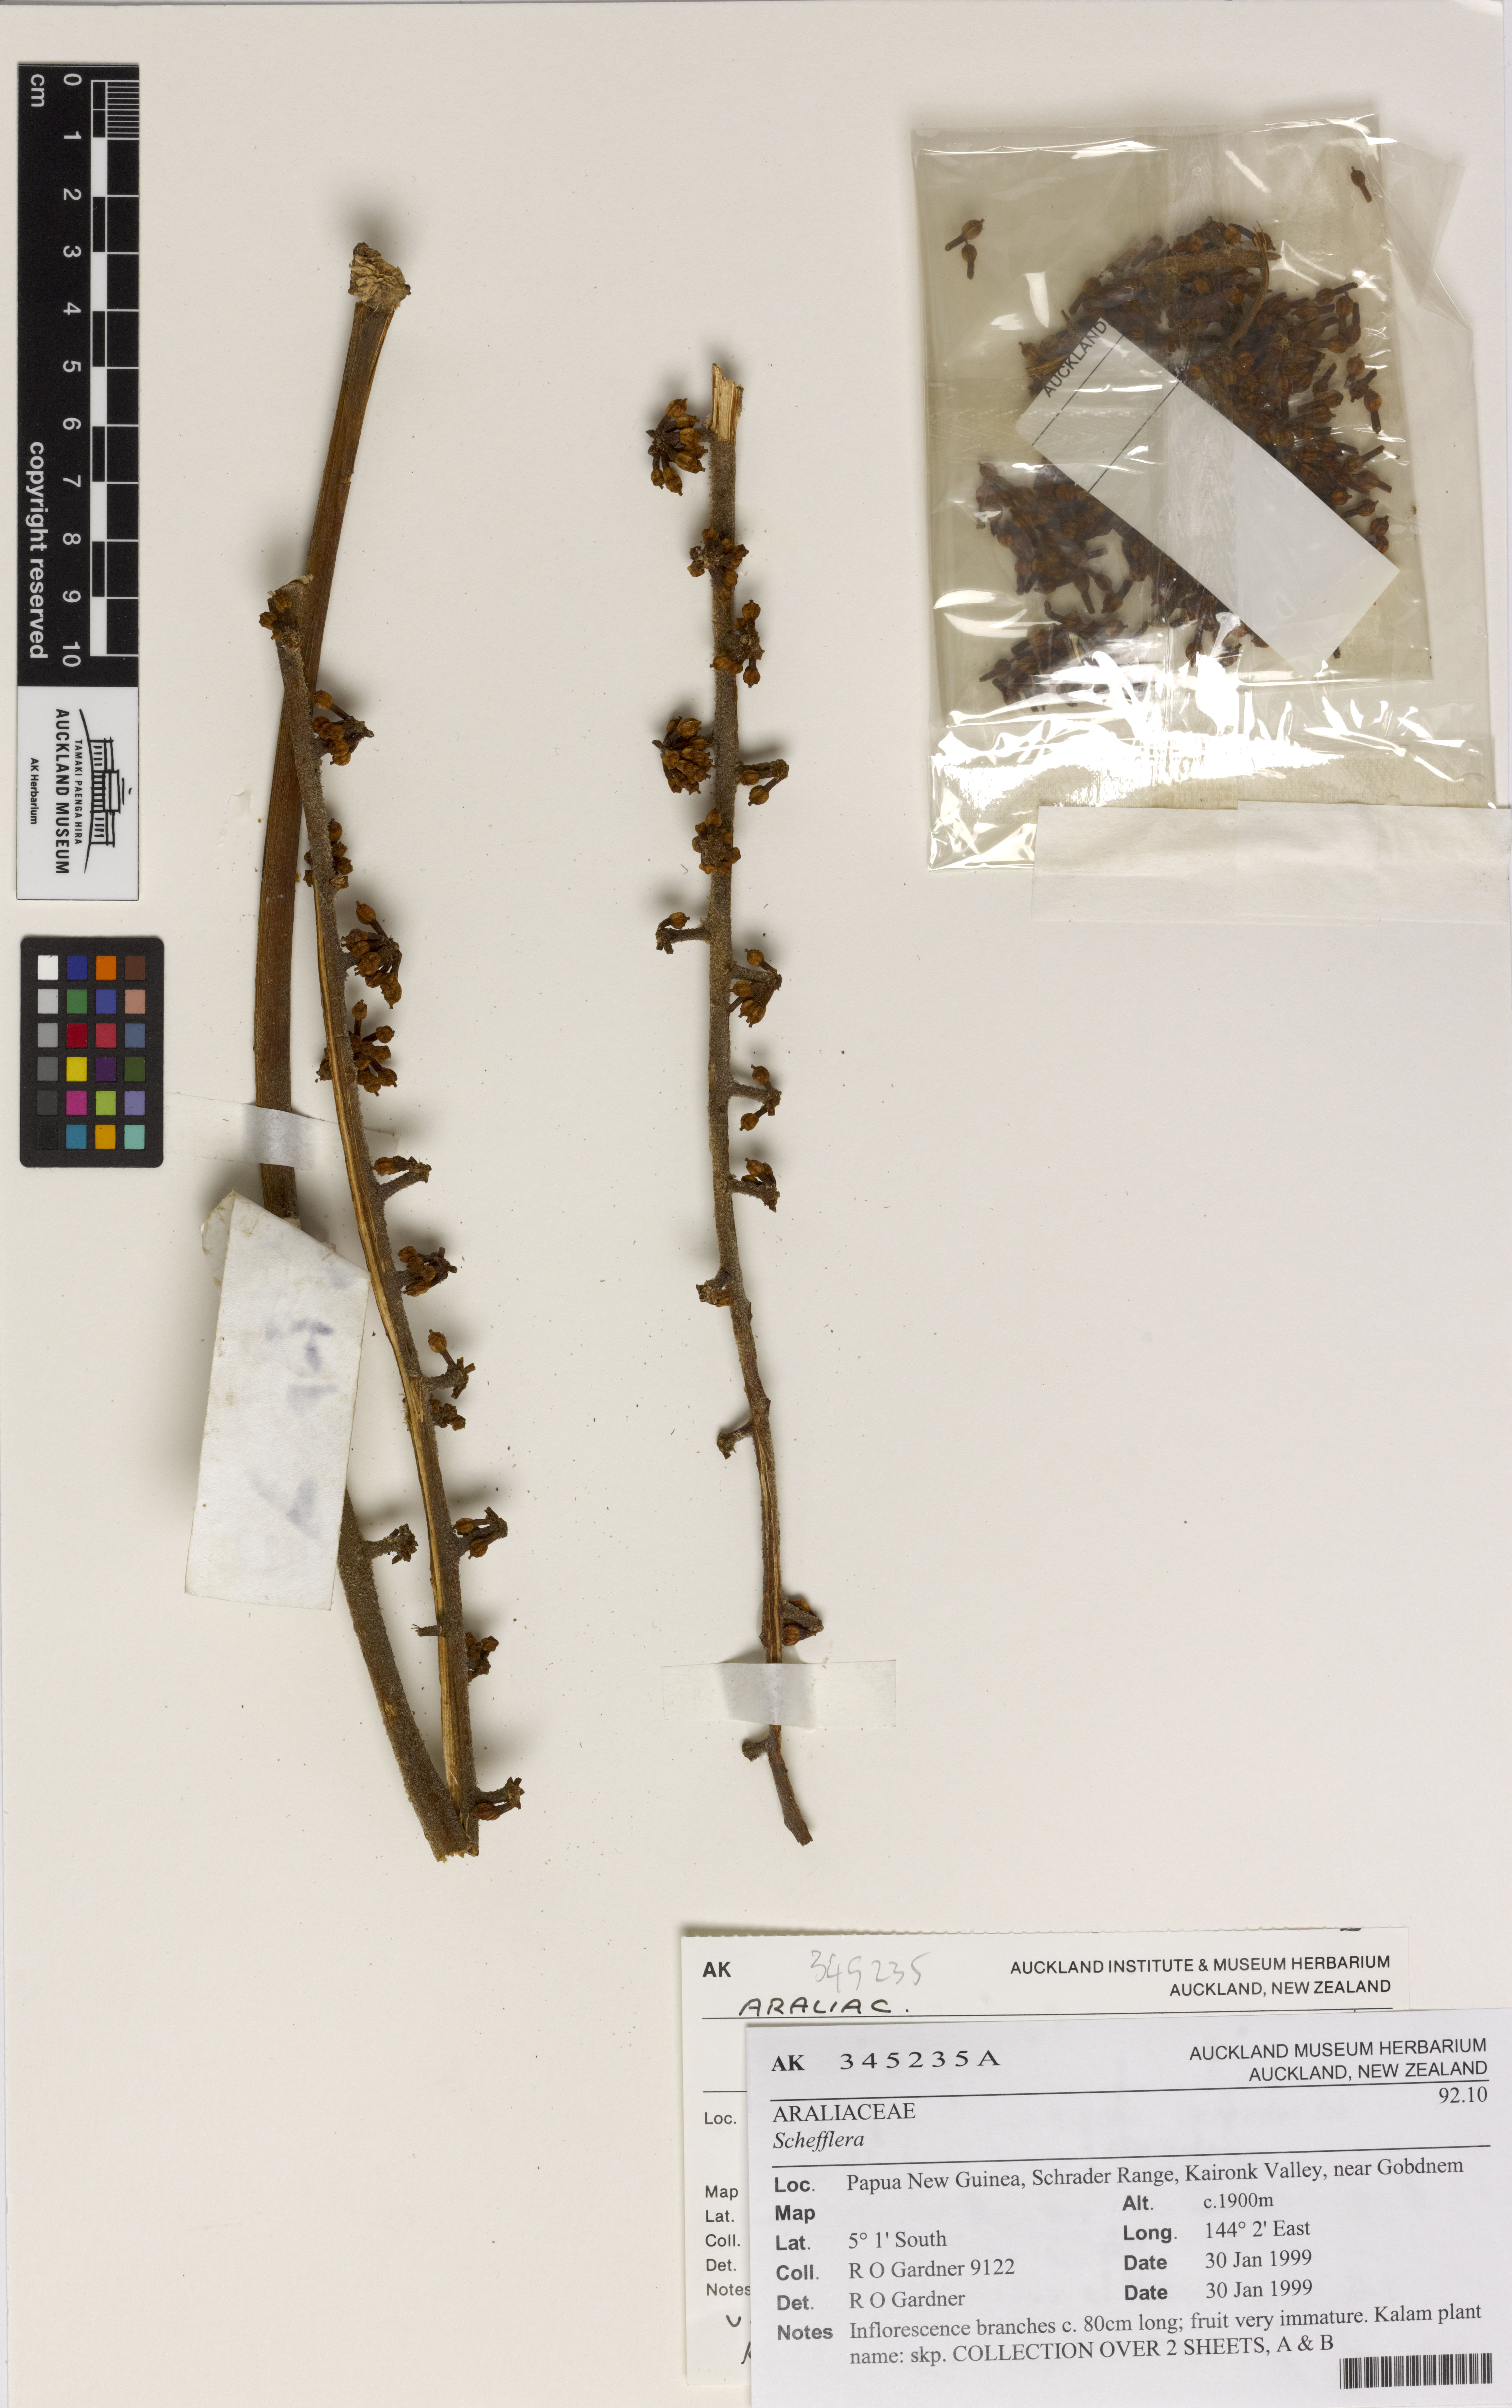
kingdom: Plantae
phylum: Tracheophyta
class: Magnoliopsida
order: Apiales
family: Araliaceae
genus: Schefflera
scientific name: Schefflera
